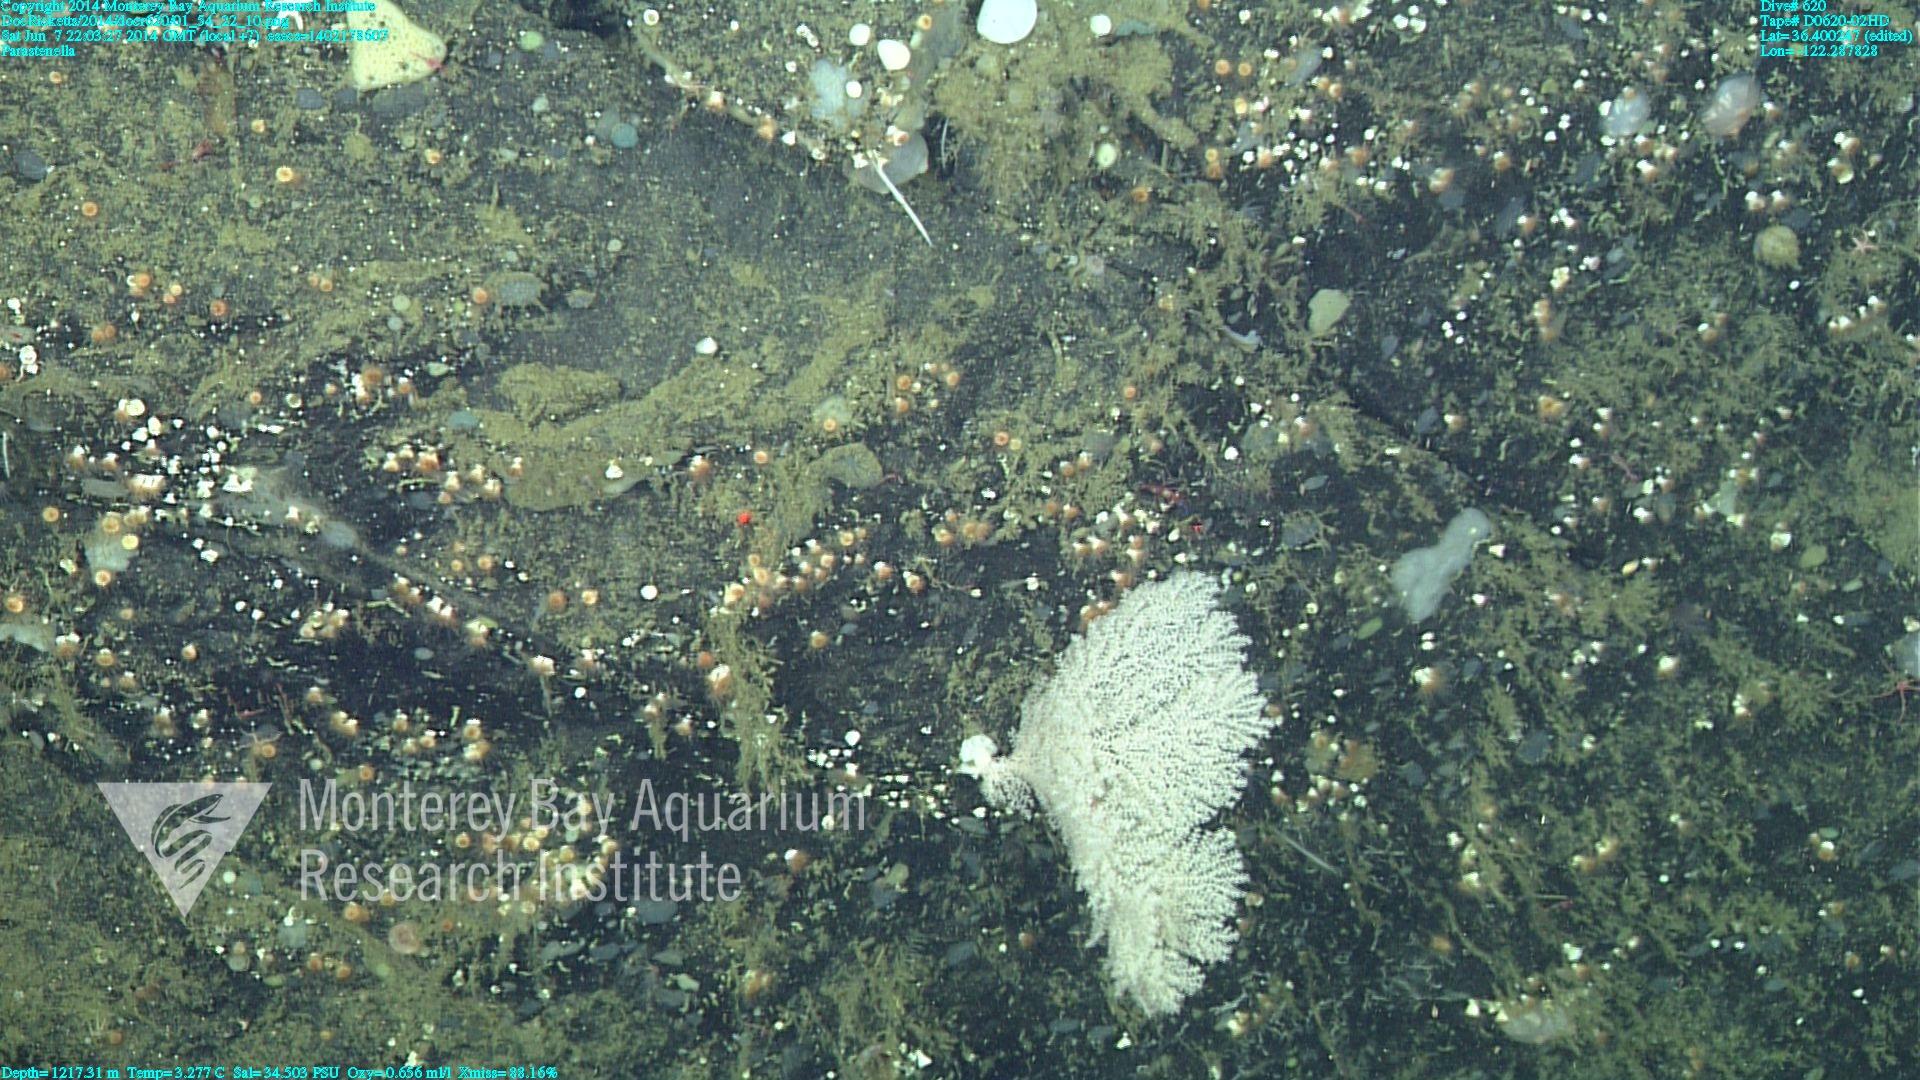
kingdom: Animalia
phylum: Cnidaria
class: Anthozoa
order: Scleralcyonacea
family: Primnoidae
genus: Parastenella
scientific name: Parastenella
